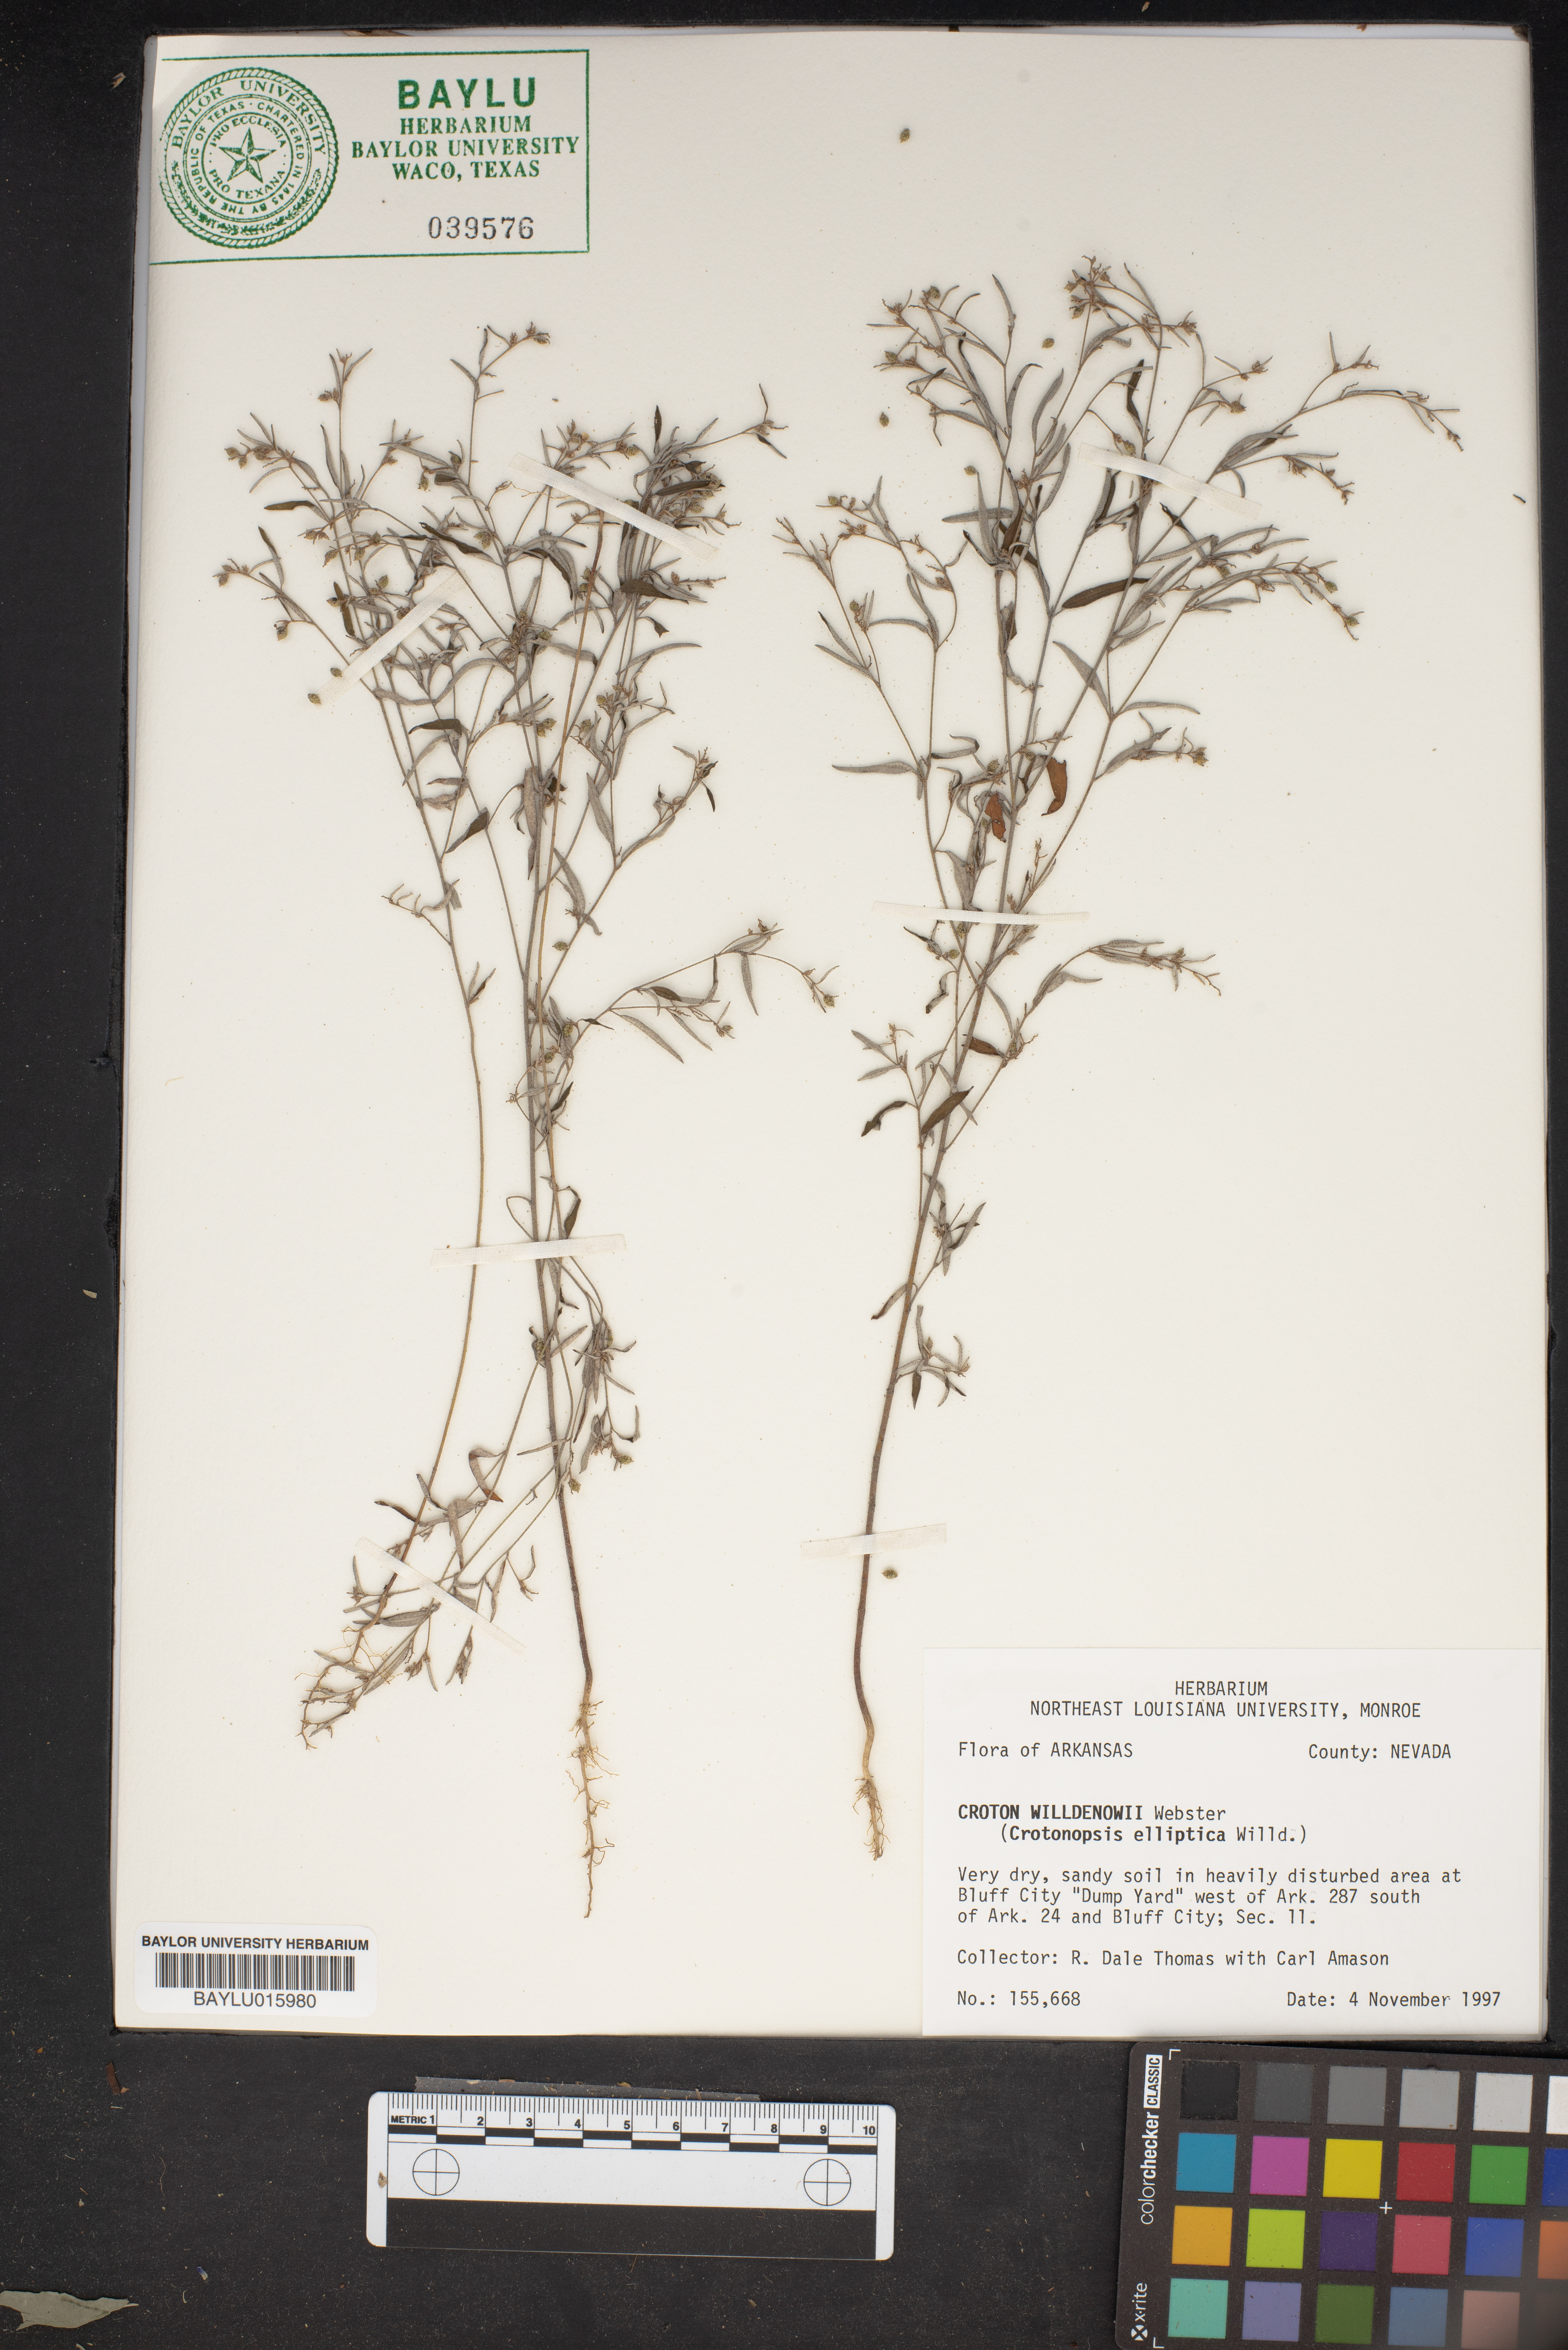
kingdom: Plantae
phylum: Tracheophyta
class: Magnoliopsida
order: Malpighiales
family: Euphorbiaceae
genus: Croton
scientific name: Croton michauxii
